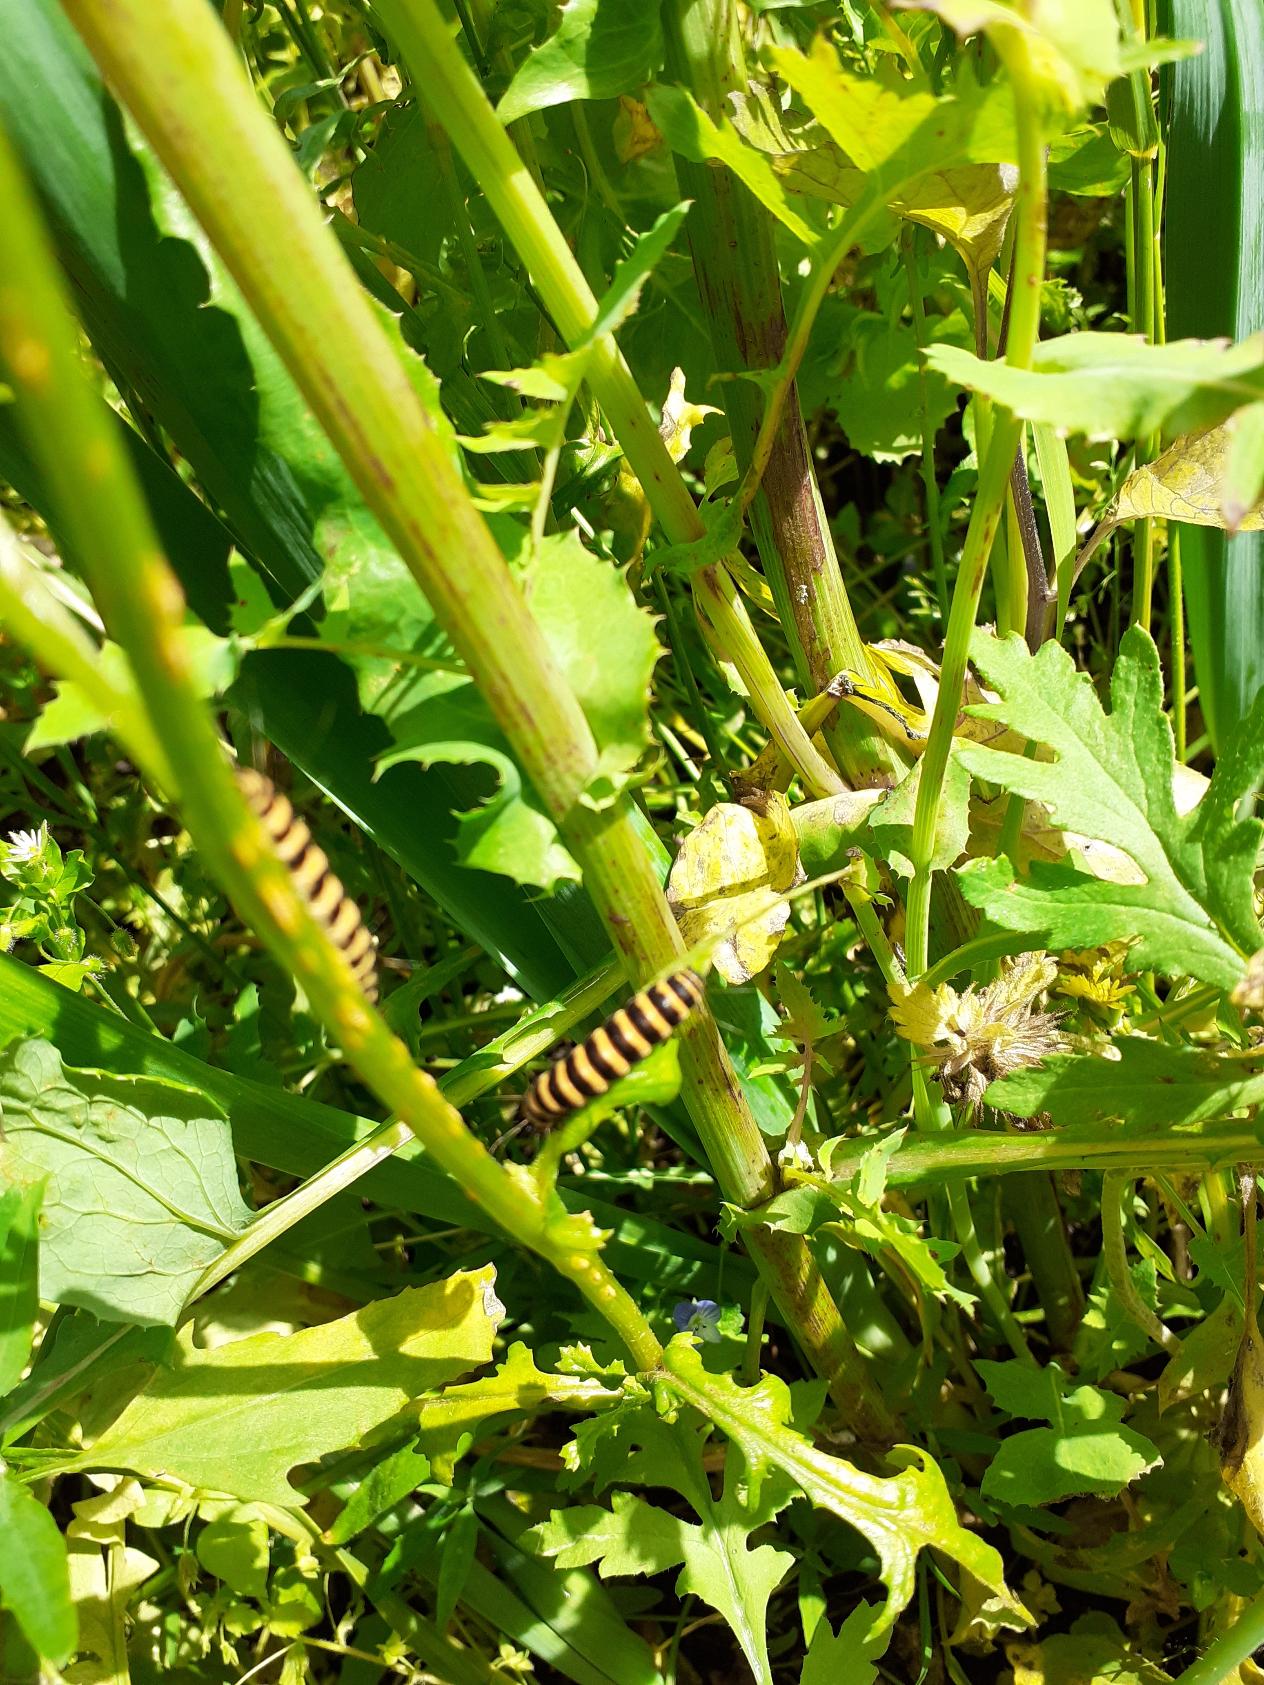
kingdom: Animalia
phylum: Arthropoda
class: Insecta
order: Lepidoptera
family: Erebidae
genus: Tyria
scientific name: Tyria jacobaeae
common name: Blodplet
